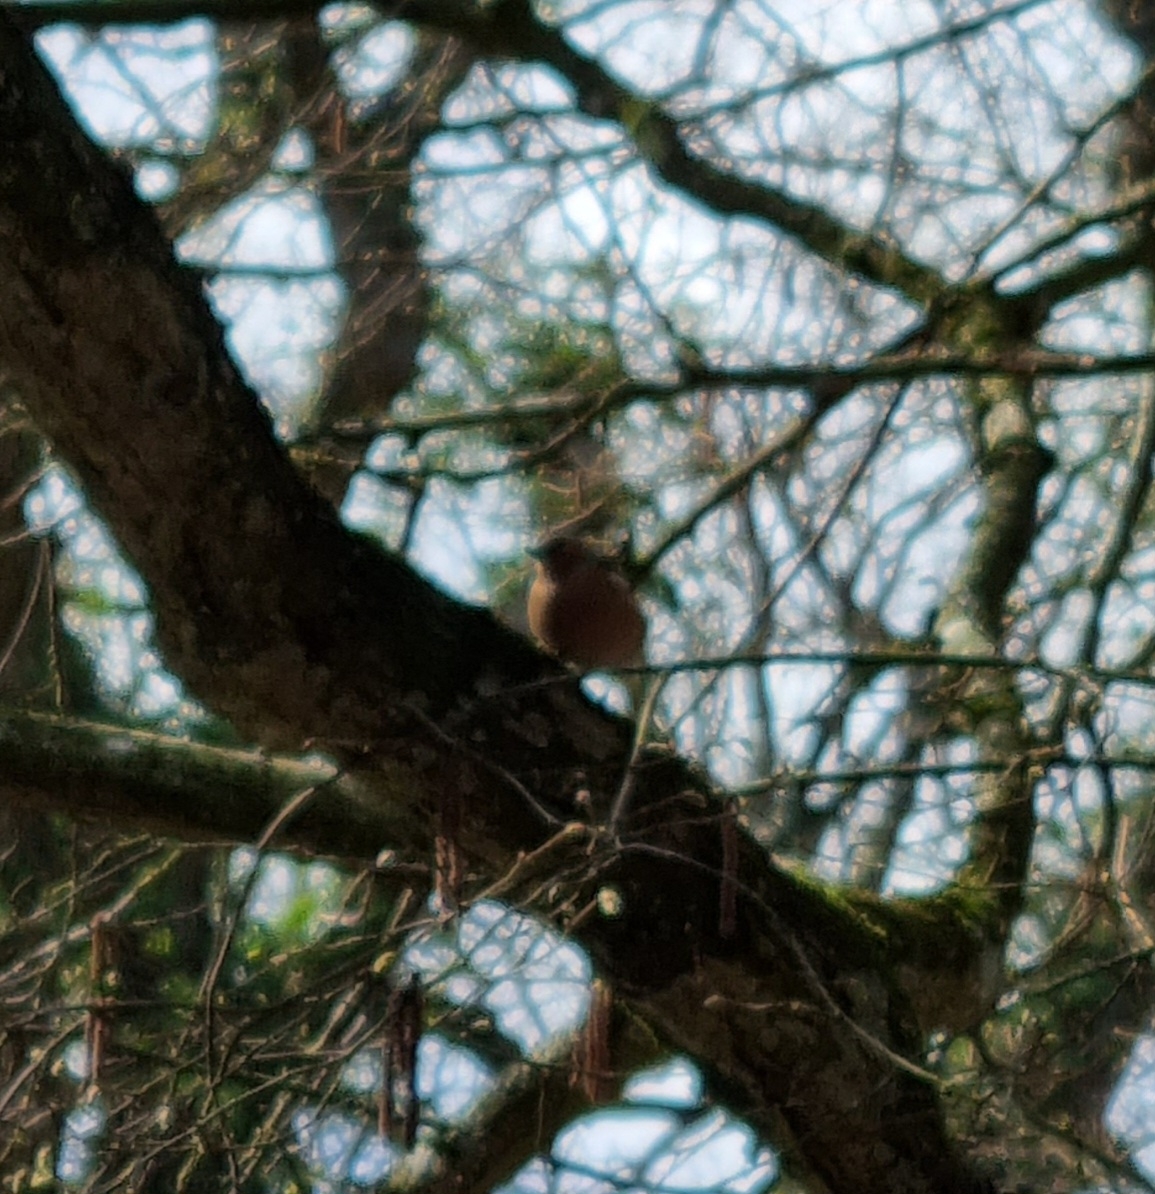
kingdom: Animalia
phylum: Chordata
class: Aves
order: Passeriformes
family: Fringillidae
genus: Fringilla
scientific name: Fringilla coelebs
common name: Bogfinke
